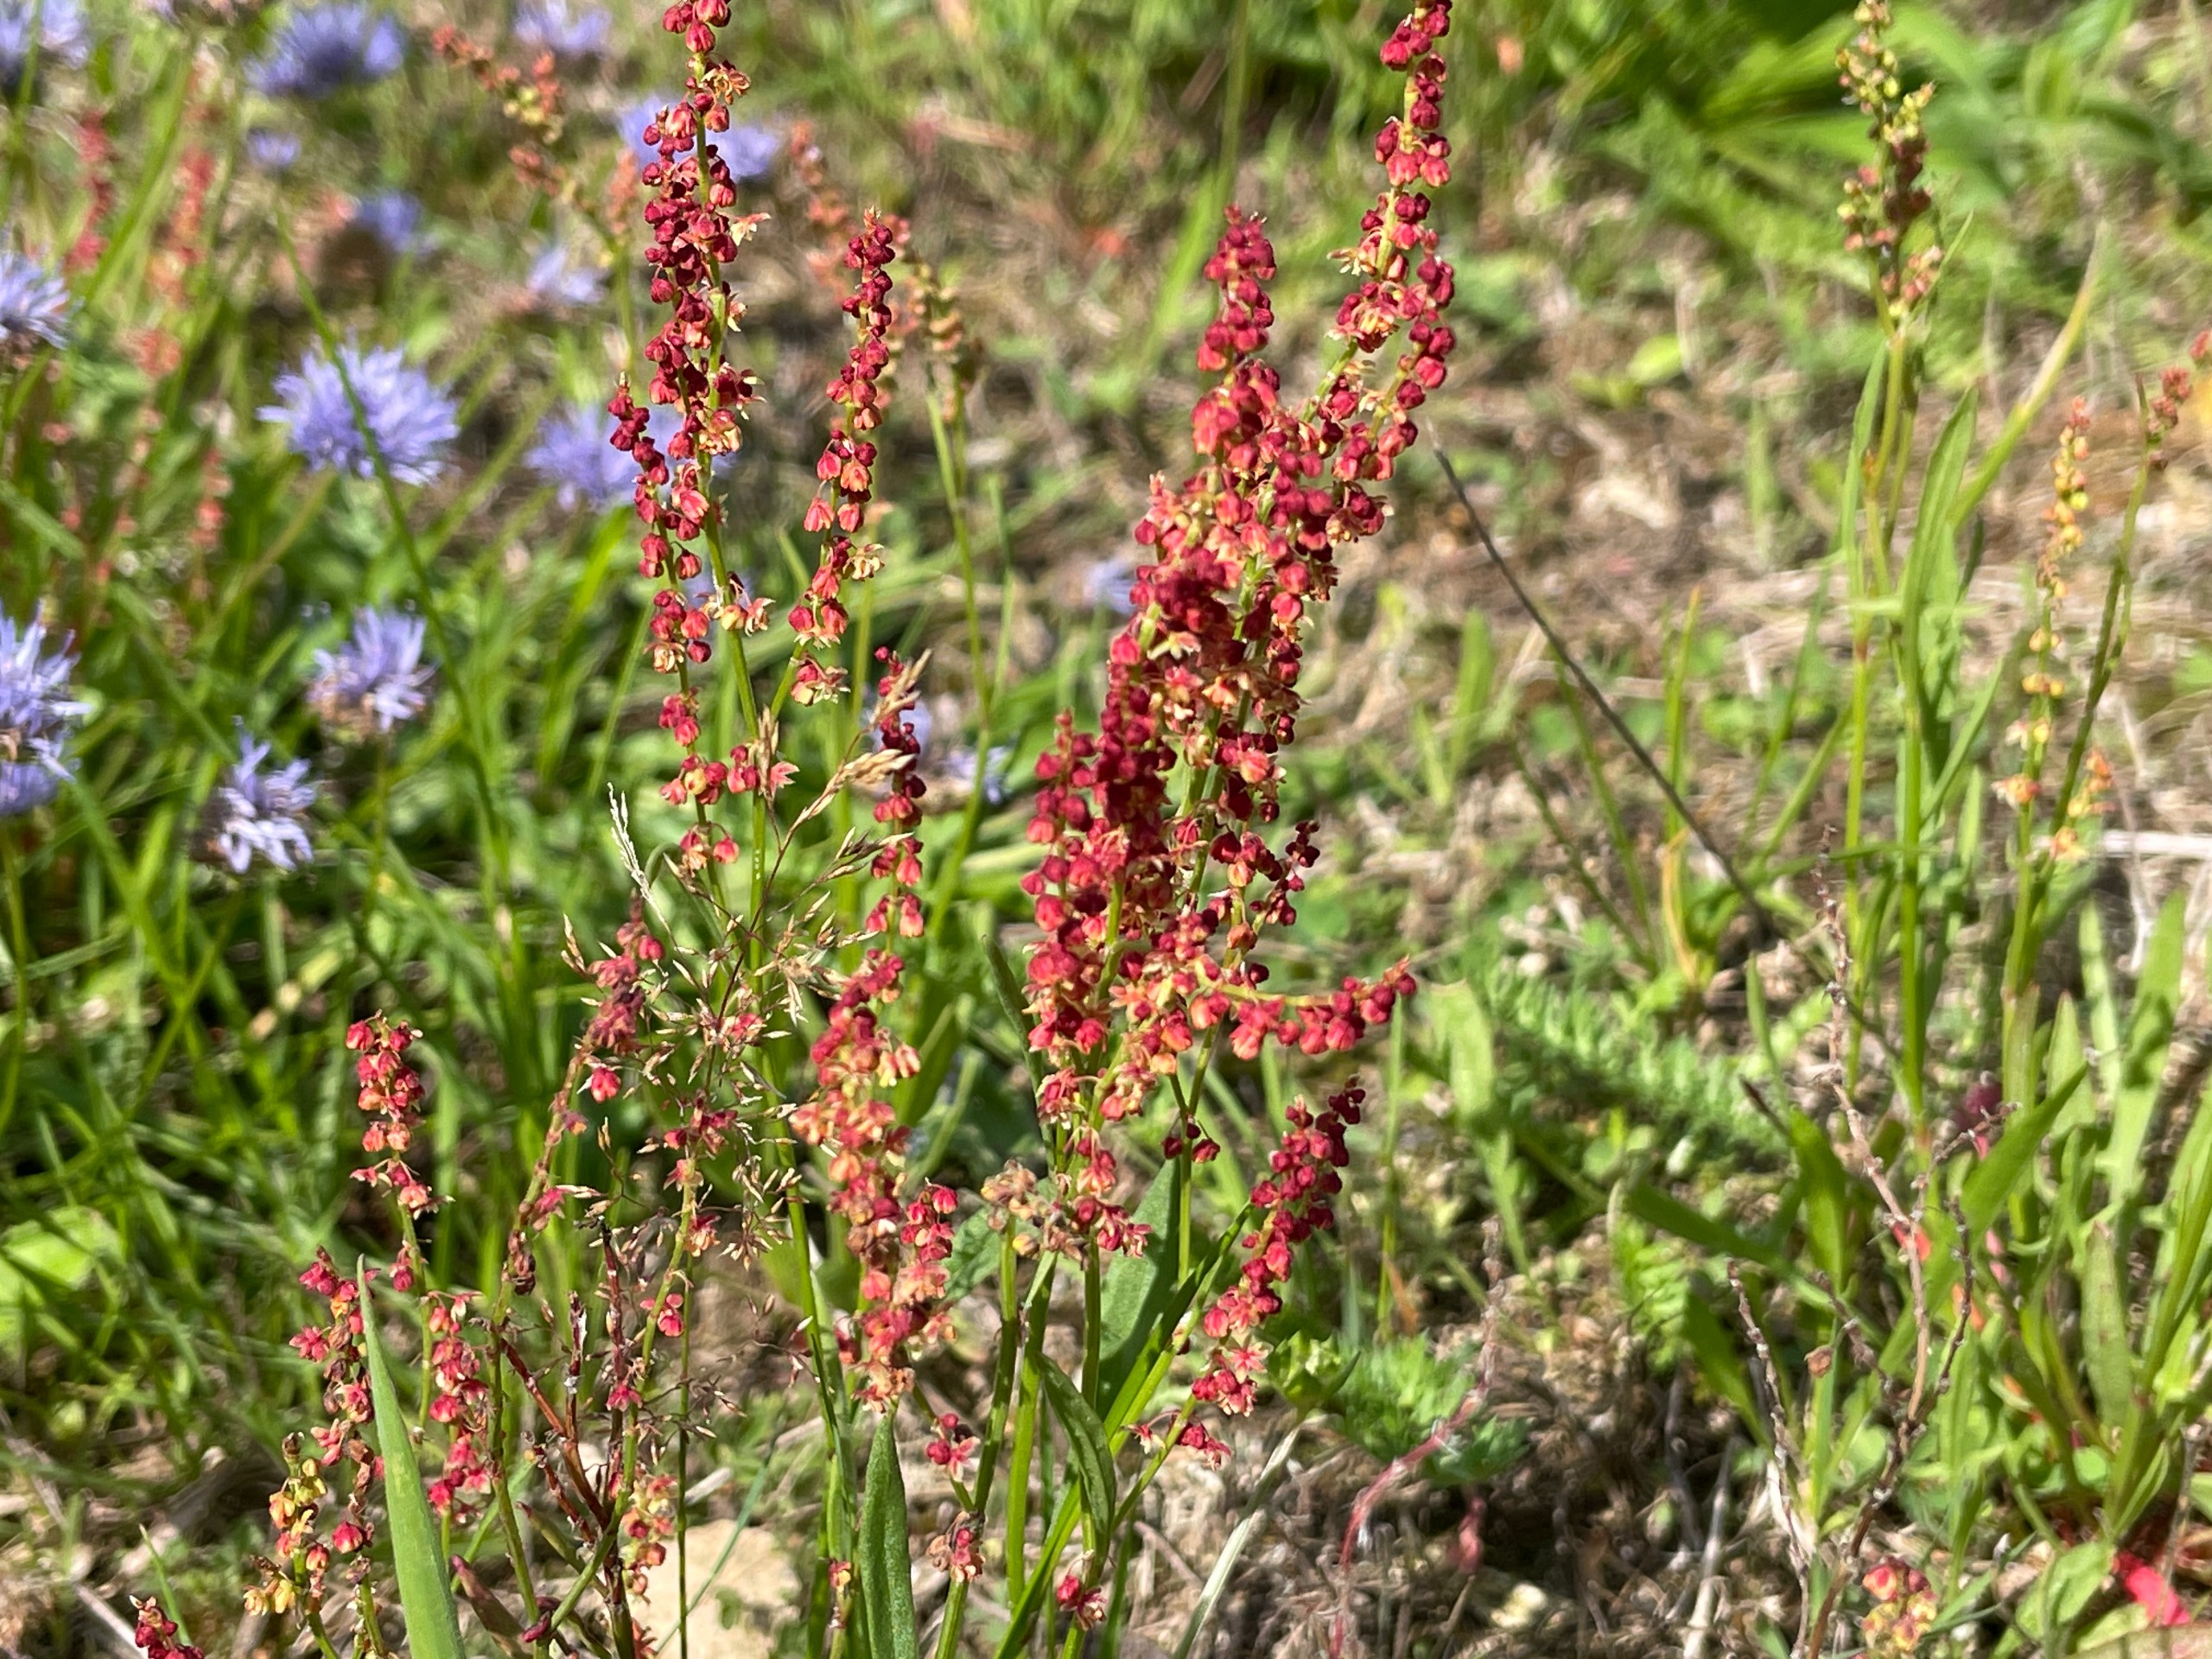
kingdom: Plantae
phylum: Tracheophyta
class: Magnoliopsida
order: Caryophyllales
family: Polygonaceae
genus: Rumex
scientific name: Rumex acetosella
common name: Rødknæ
